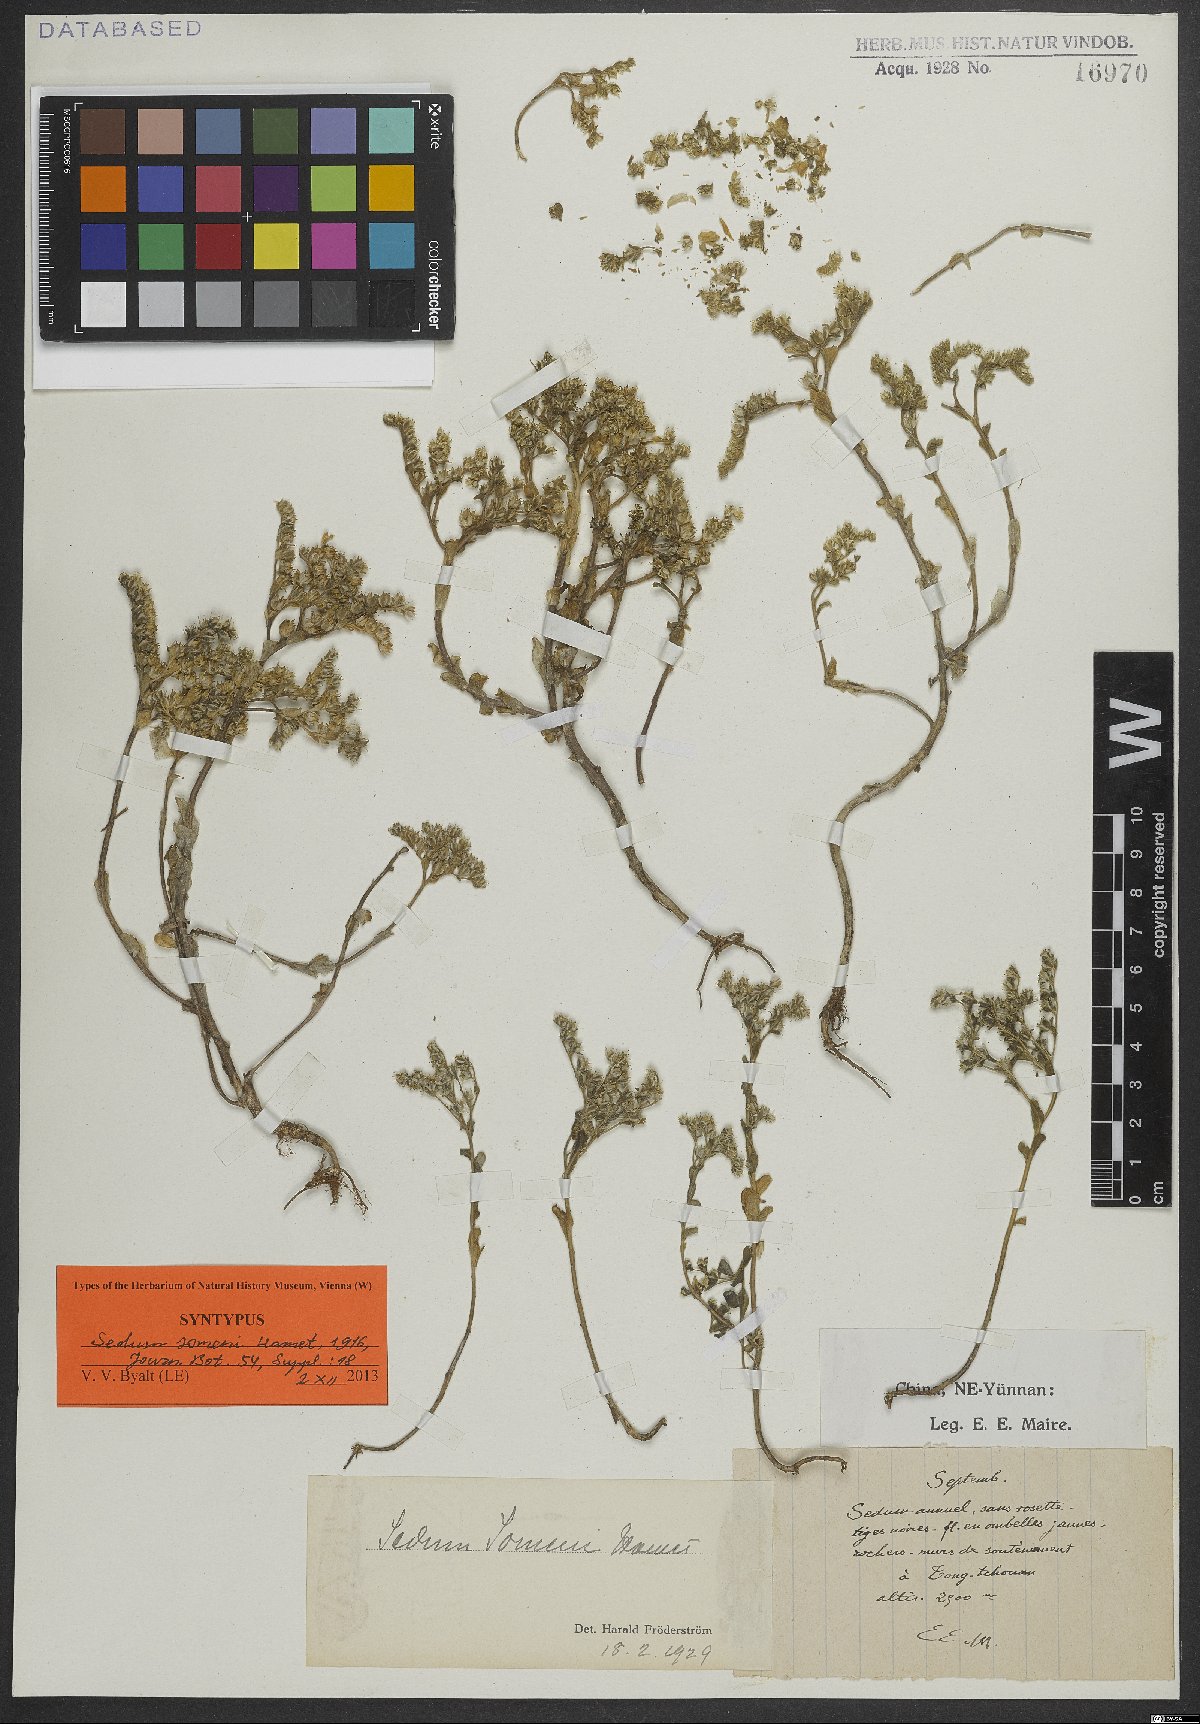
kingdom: Plantae
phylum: Tracheophyta
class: Magnoliopsida
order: Saxifragales
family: Crassulaceae
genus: Sedum
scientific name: Sedum somenii
